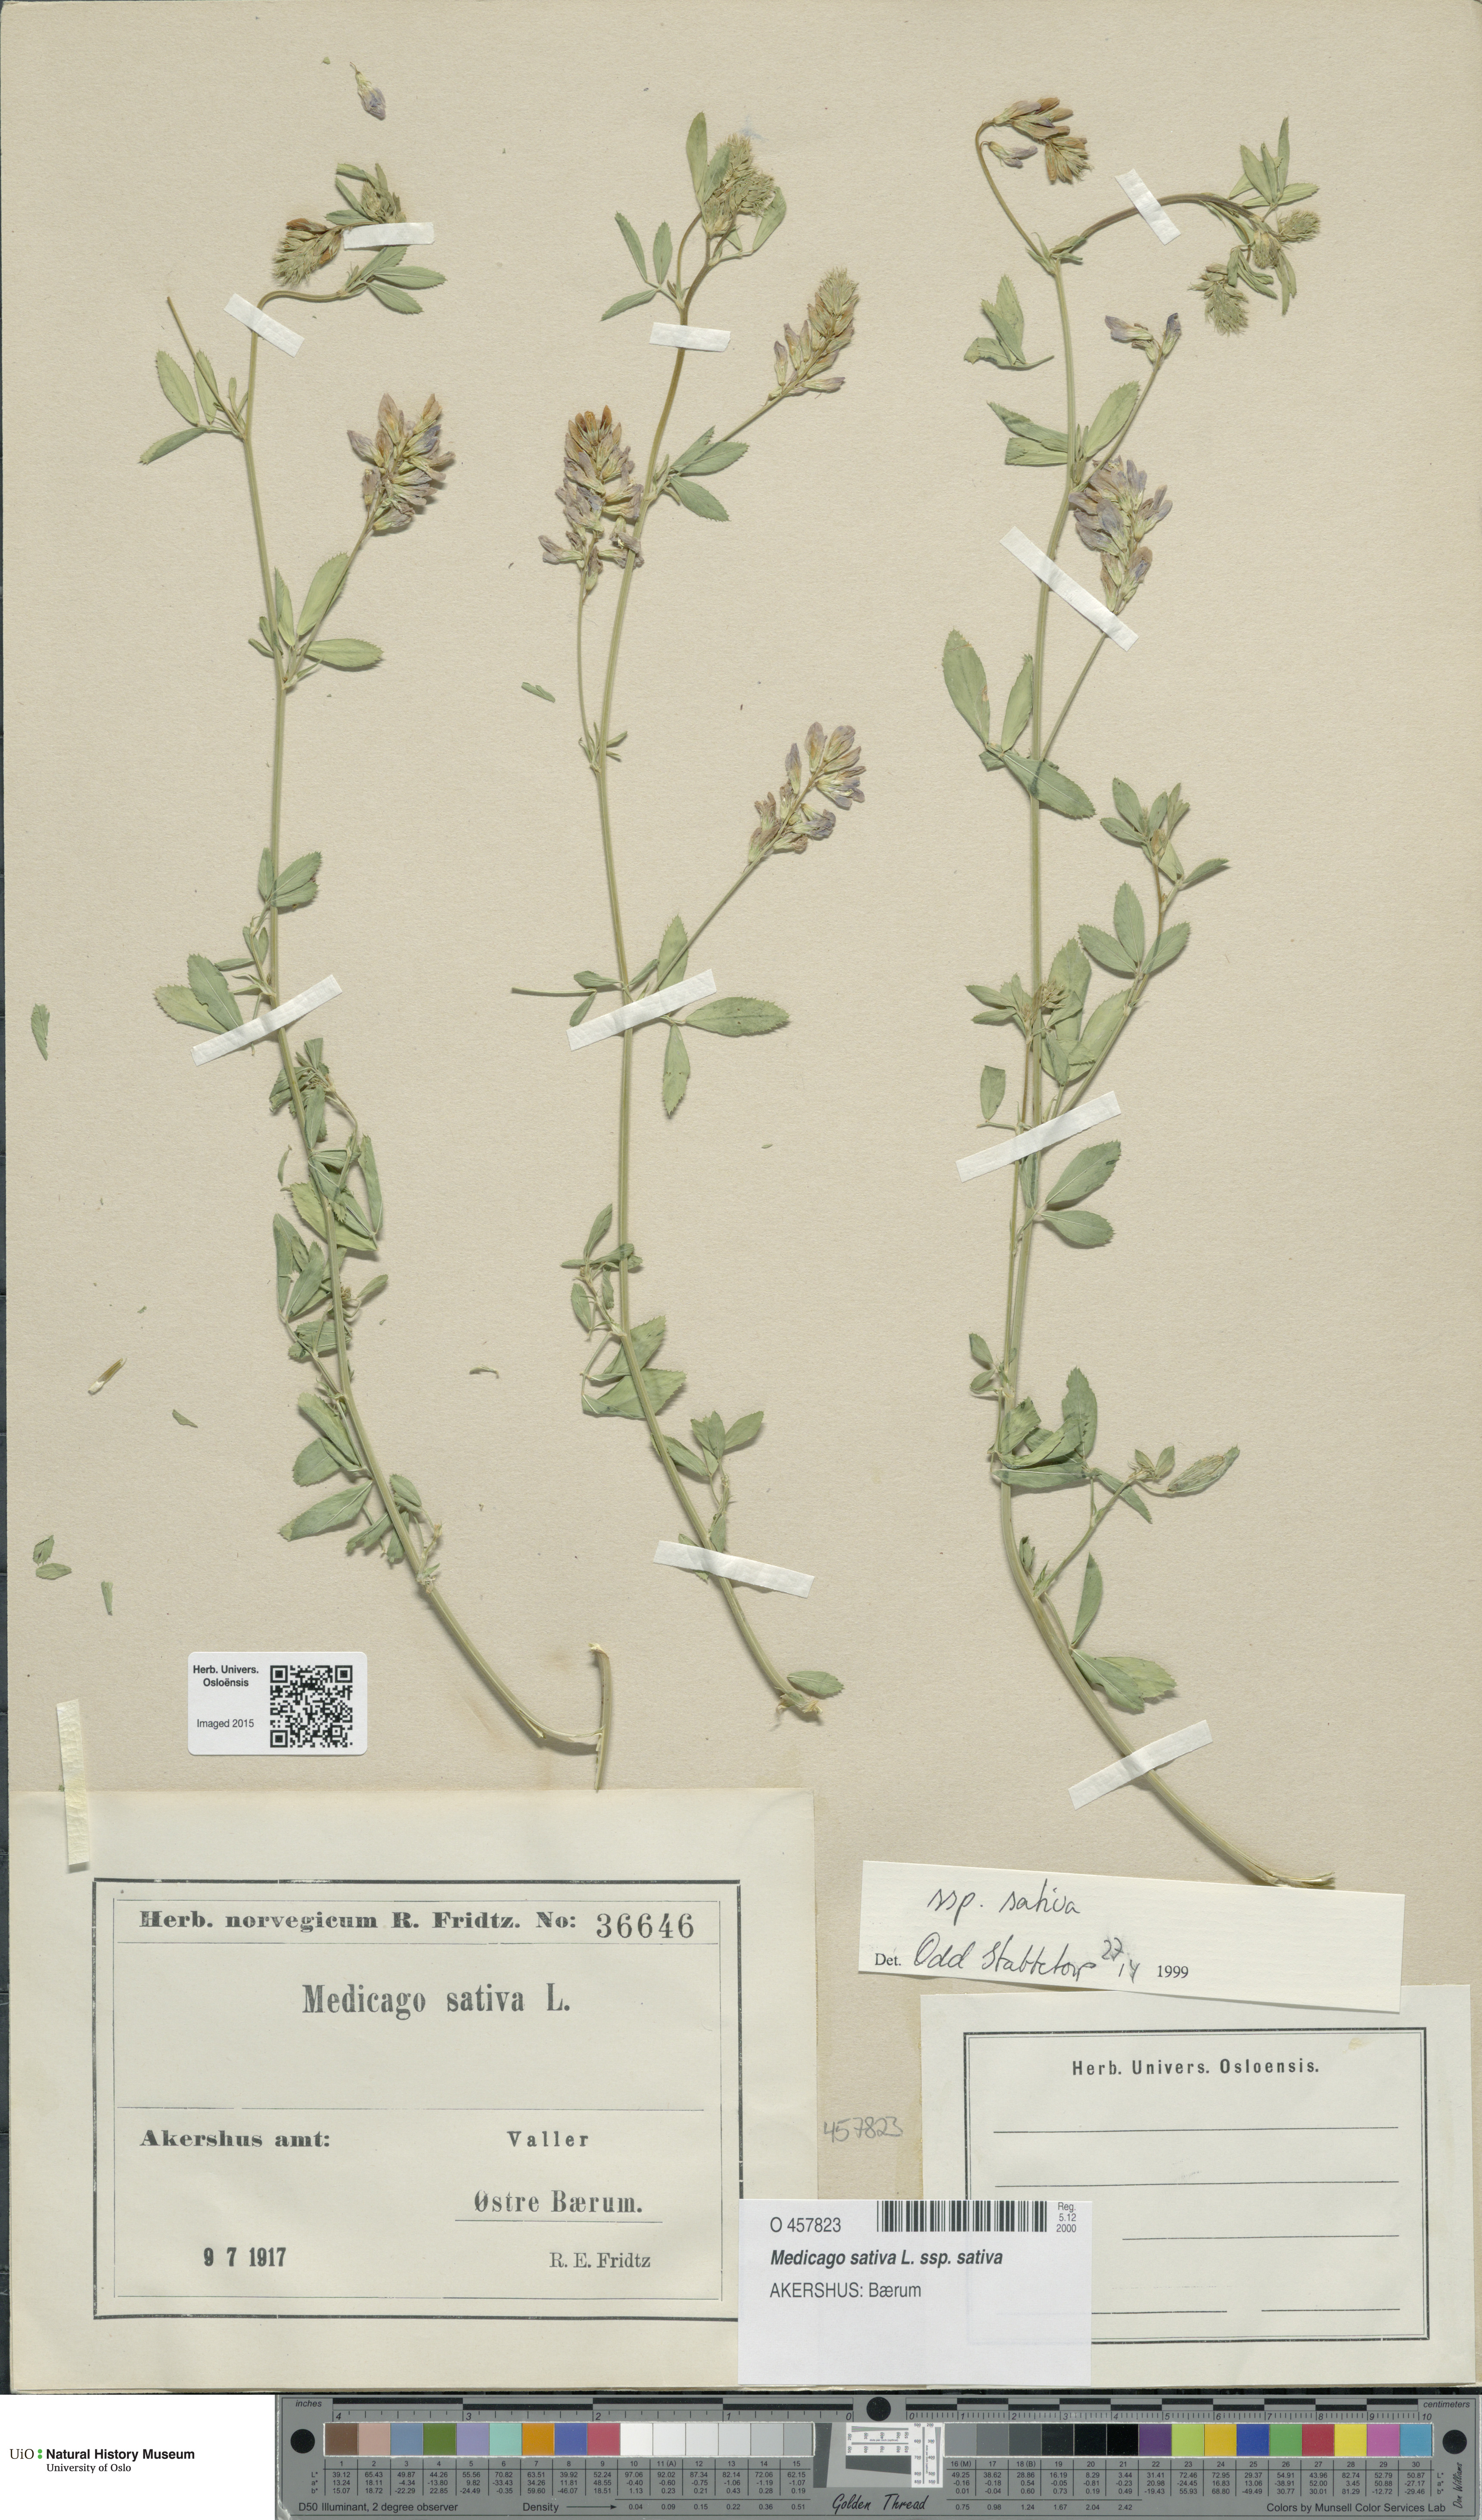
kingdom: Plantae
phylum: Tracheophyta
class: Magnoliopsida
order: Fabales
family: Fabaceae
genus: Medicago
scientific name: Medicago sativa
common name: Alfalfa
